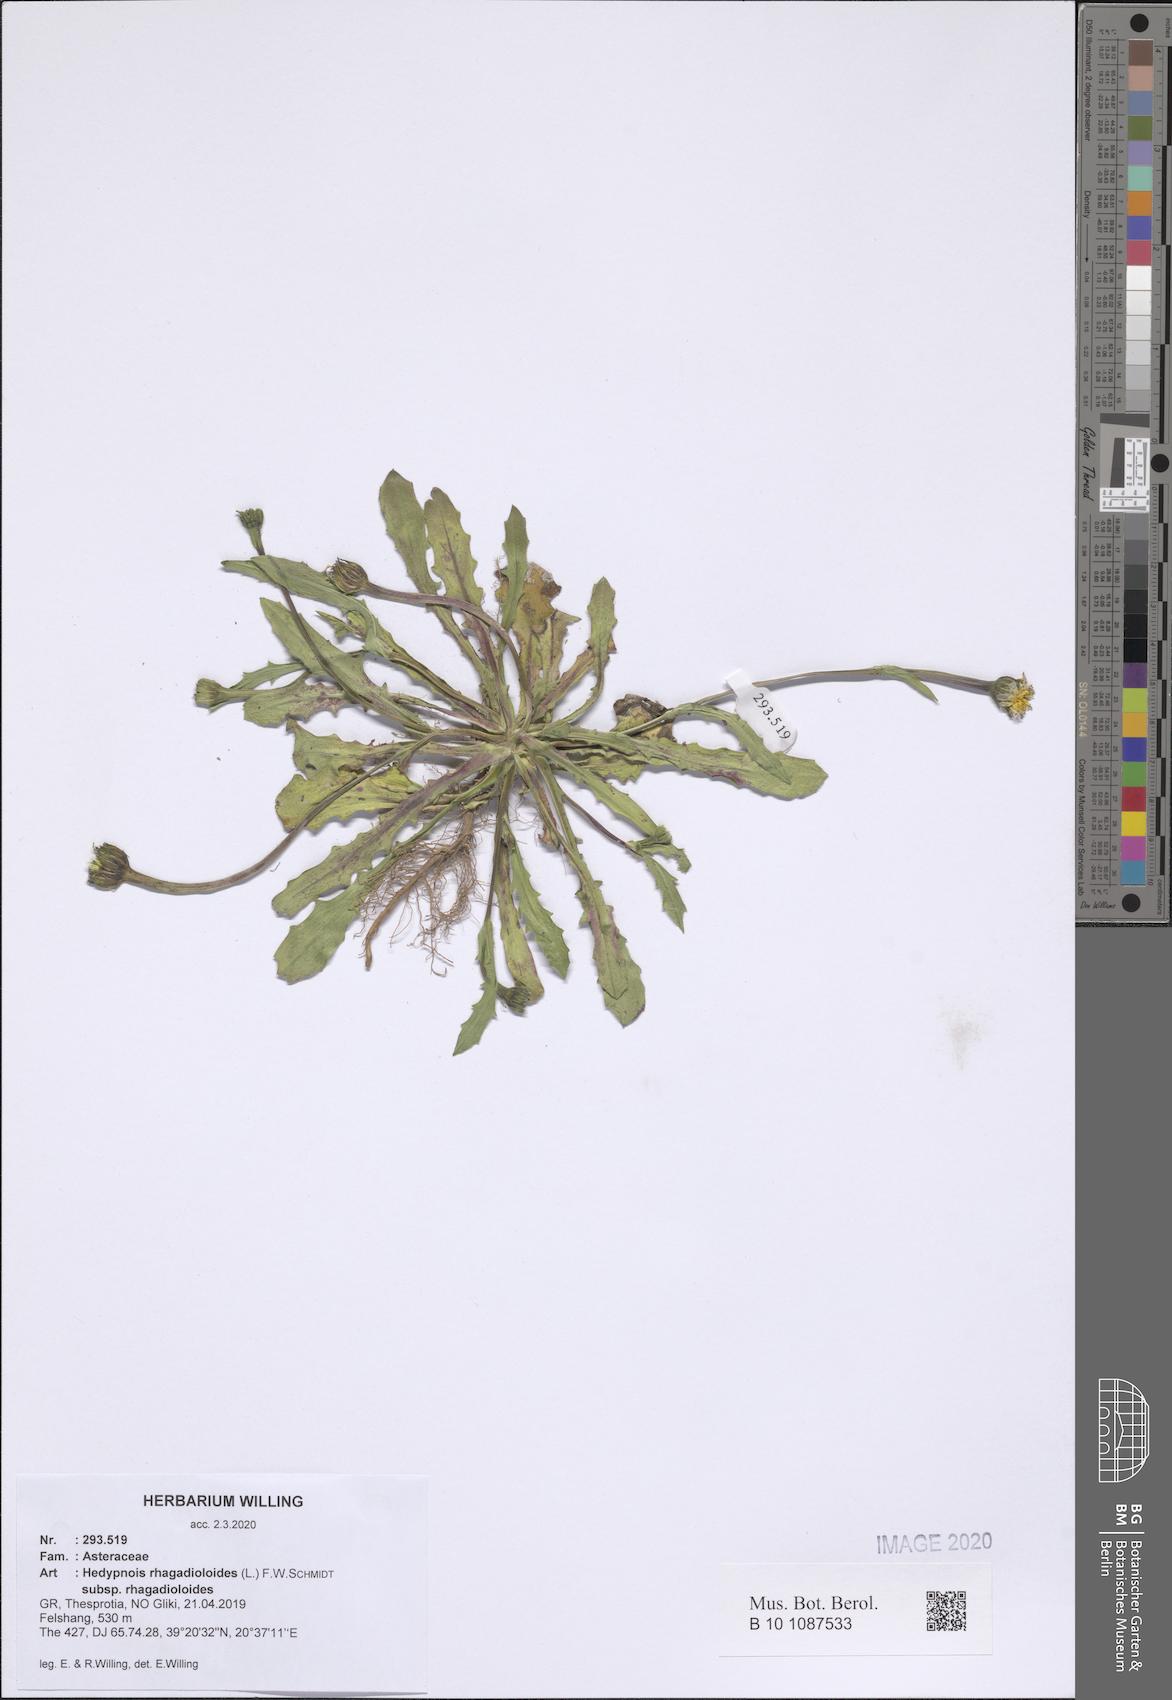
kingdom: Plantae
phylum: Tracheophyta
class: Magnoliopsida
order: Asterales
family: Asteraceae
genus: Hedypnois
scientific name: Hedypnois rhagadioloides
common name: Cretan weed
